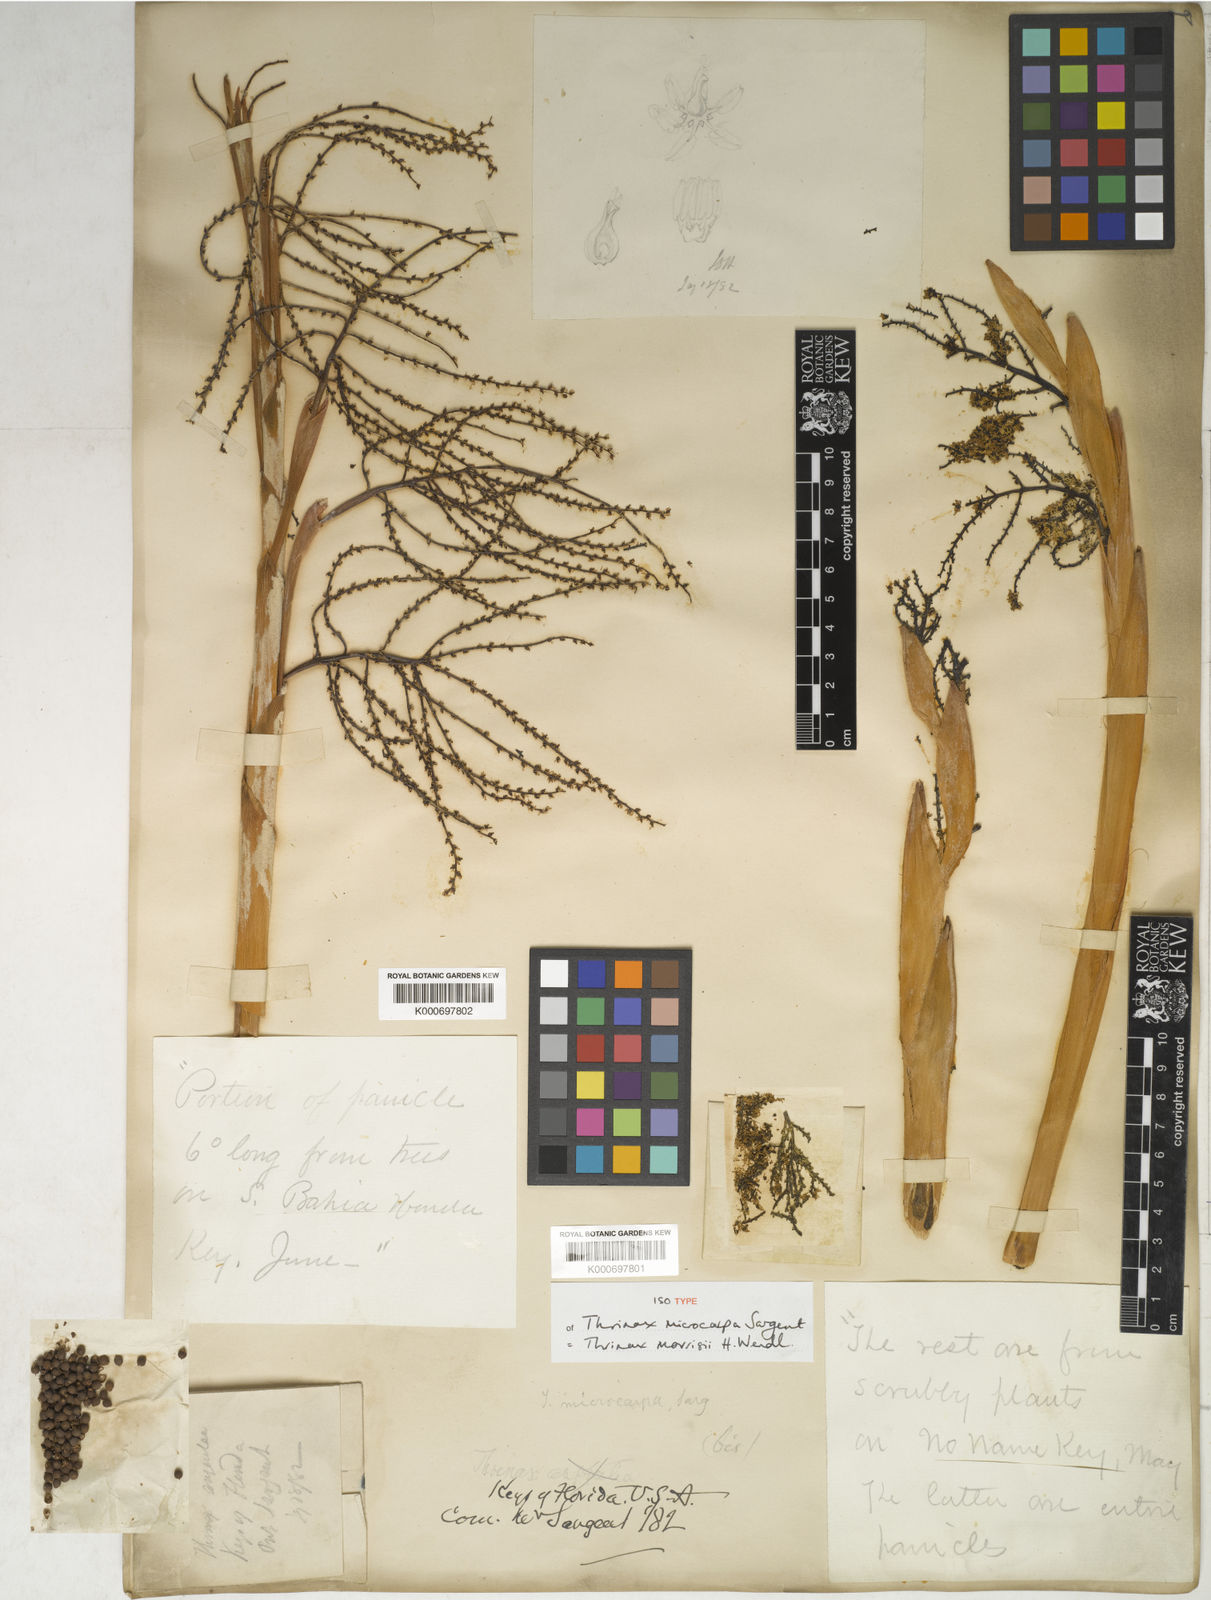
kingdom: Plantae
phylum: Tracheophyta
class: Liliopsida
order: Arecales
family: Arecaceae
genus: Leucothrinax
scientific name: Leucothrinax morrisii
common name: Key palm
